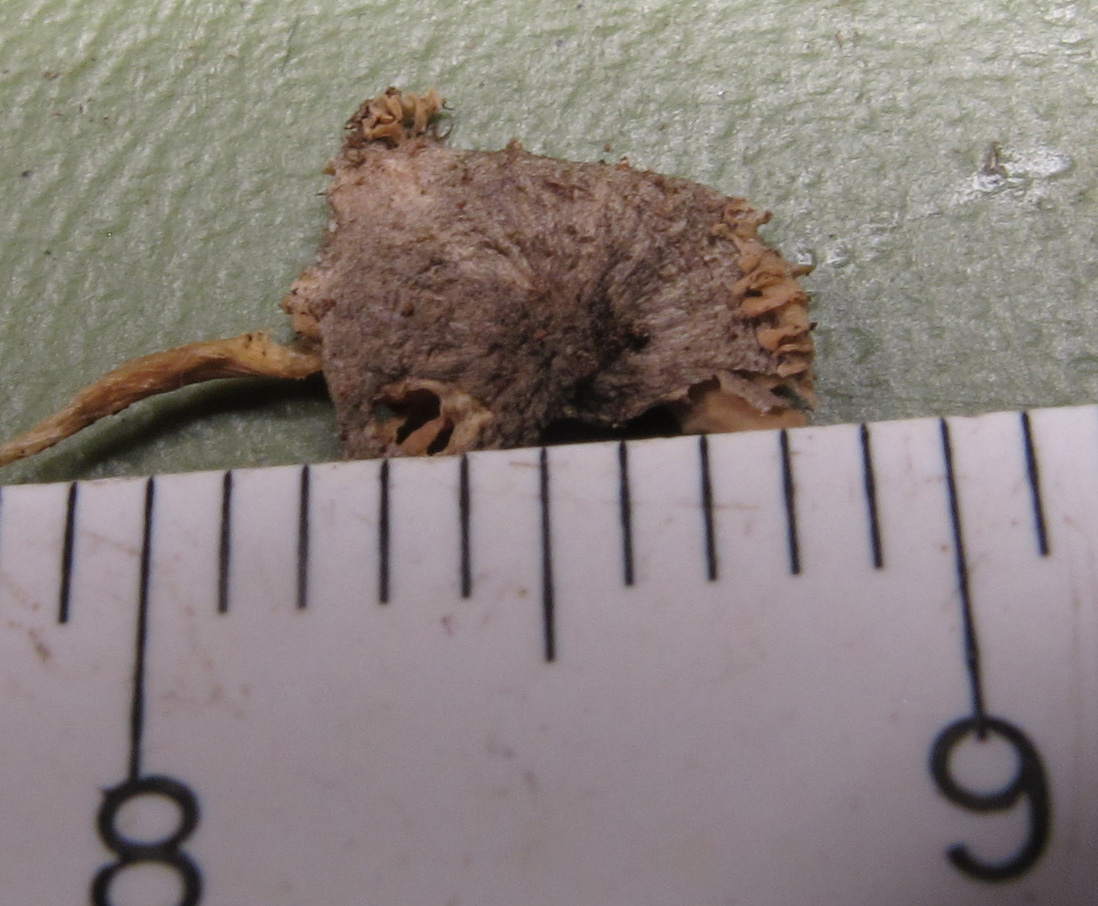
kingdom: Fungi
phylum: Basidiomycota
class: Agaricomycetes
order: Agaricales
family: Pluteaceae
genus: Pluteus
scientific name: Pluteus
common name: stivhåret skærmhat
